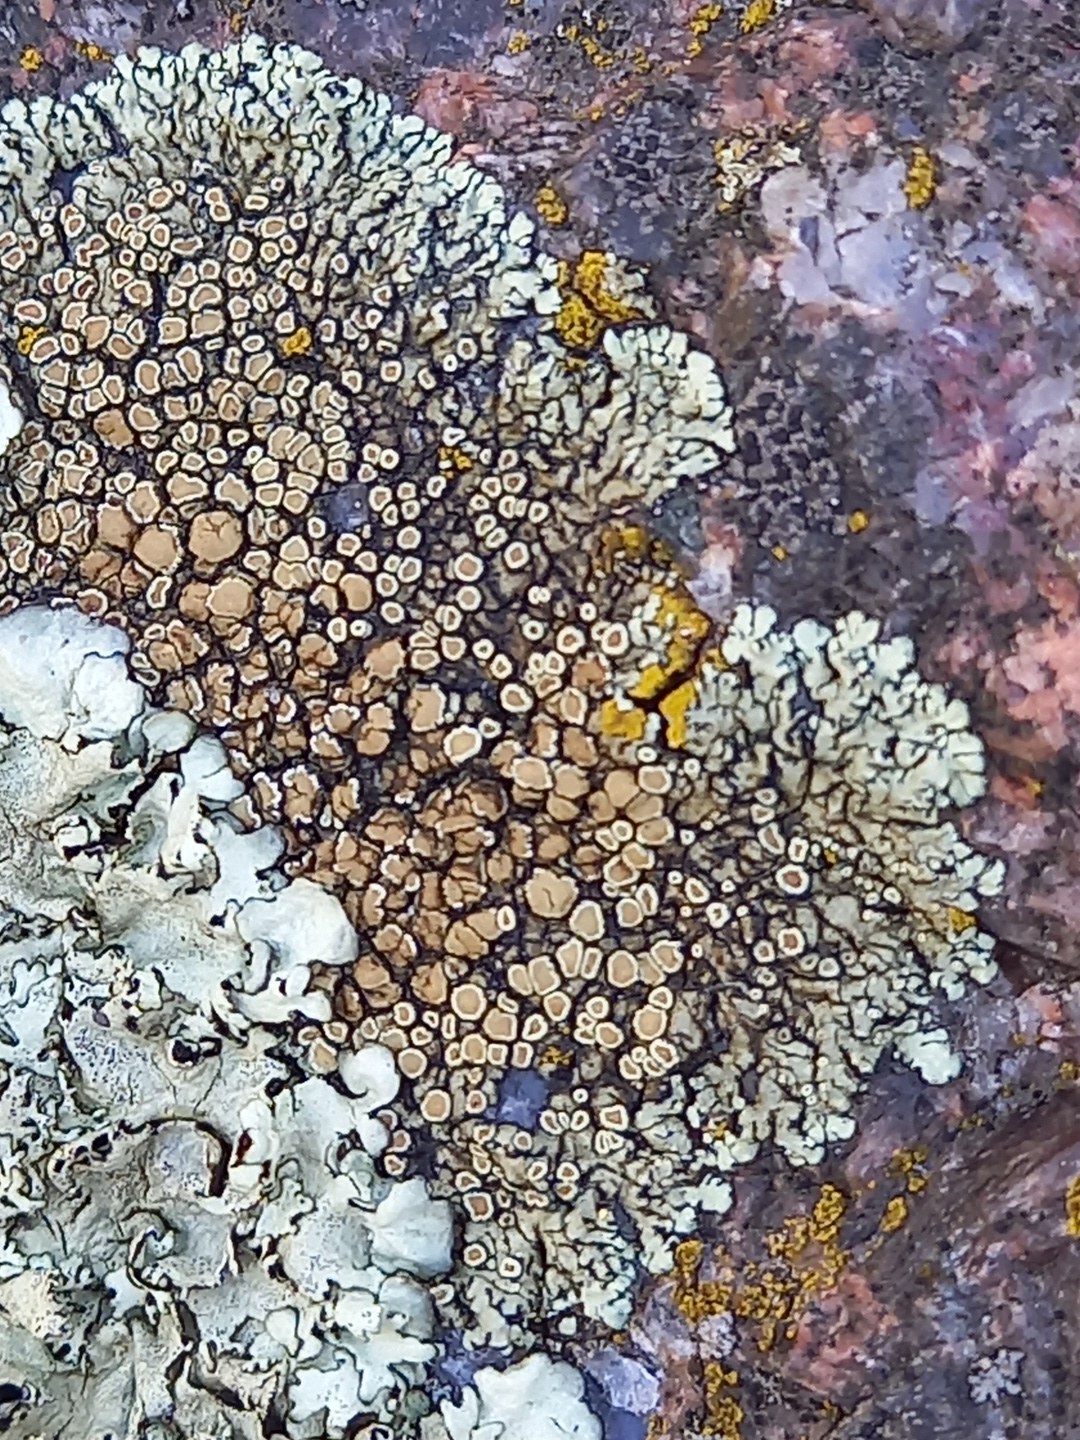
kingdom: Fungi
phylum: Ascomycota
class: Lecanoromycetes
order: Lecanorales
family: Lecanoraceae
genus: Protoparmeliopsis
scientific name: Protoparmeliopsis muralis
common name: randfliget kantskivelav
